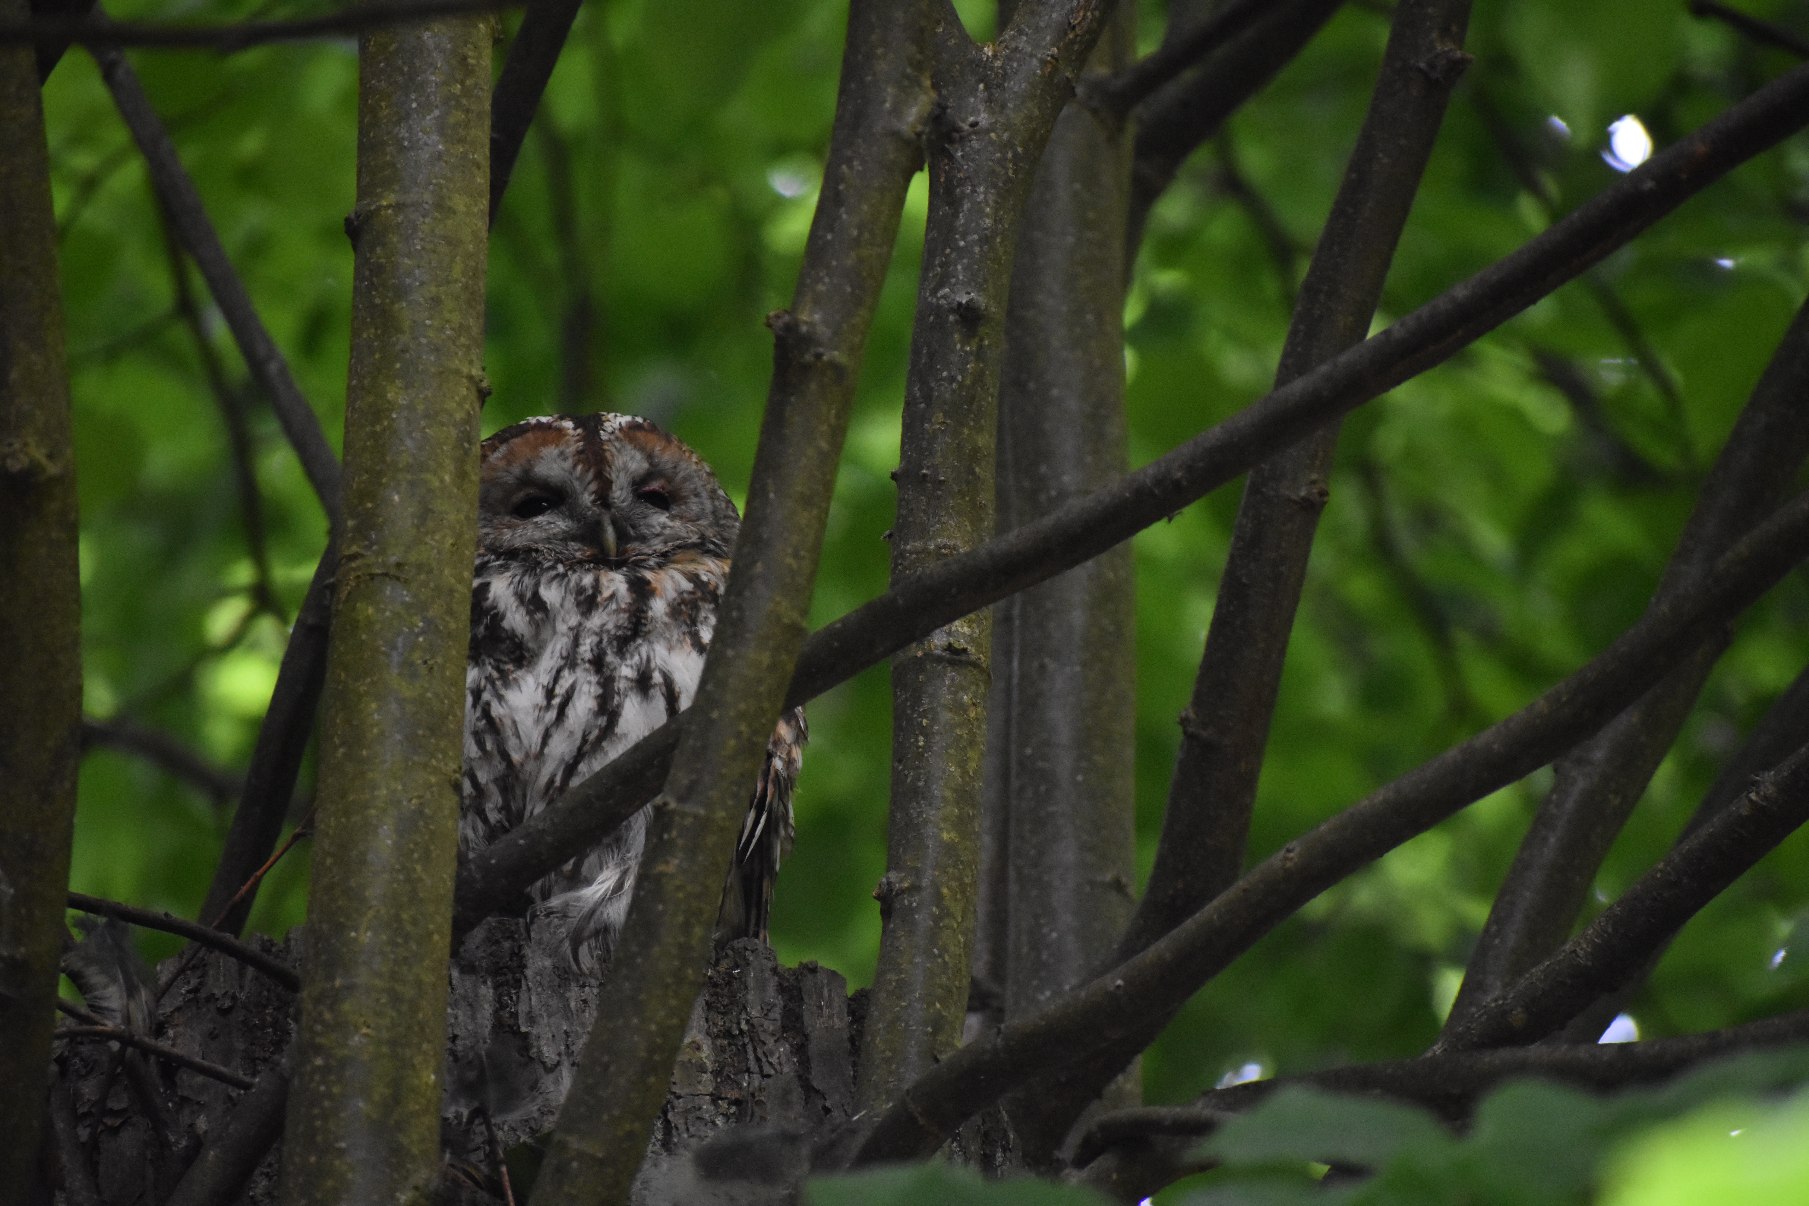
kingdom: Animalia
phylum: Chordata
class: Aves
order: Strigiformes
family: Strigidae
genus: Strix
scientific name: Strix aluco
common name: Natugle
